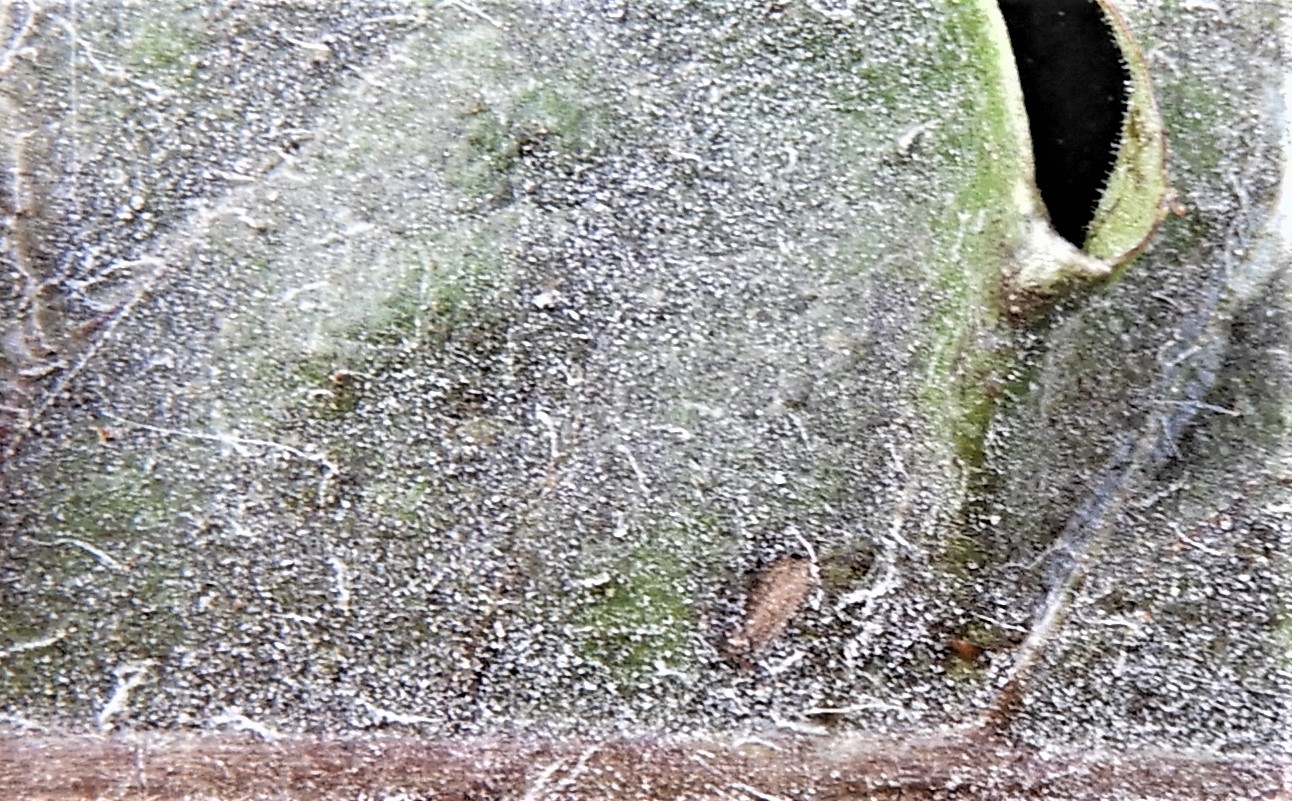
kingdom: Fungi
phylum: Ascomycota
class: Leotiomycetes
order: Helotiales
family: Erysiphaceae
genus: Podosphaera
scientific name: Podosphaera erigerontis-canadensis
